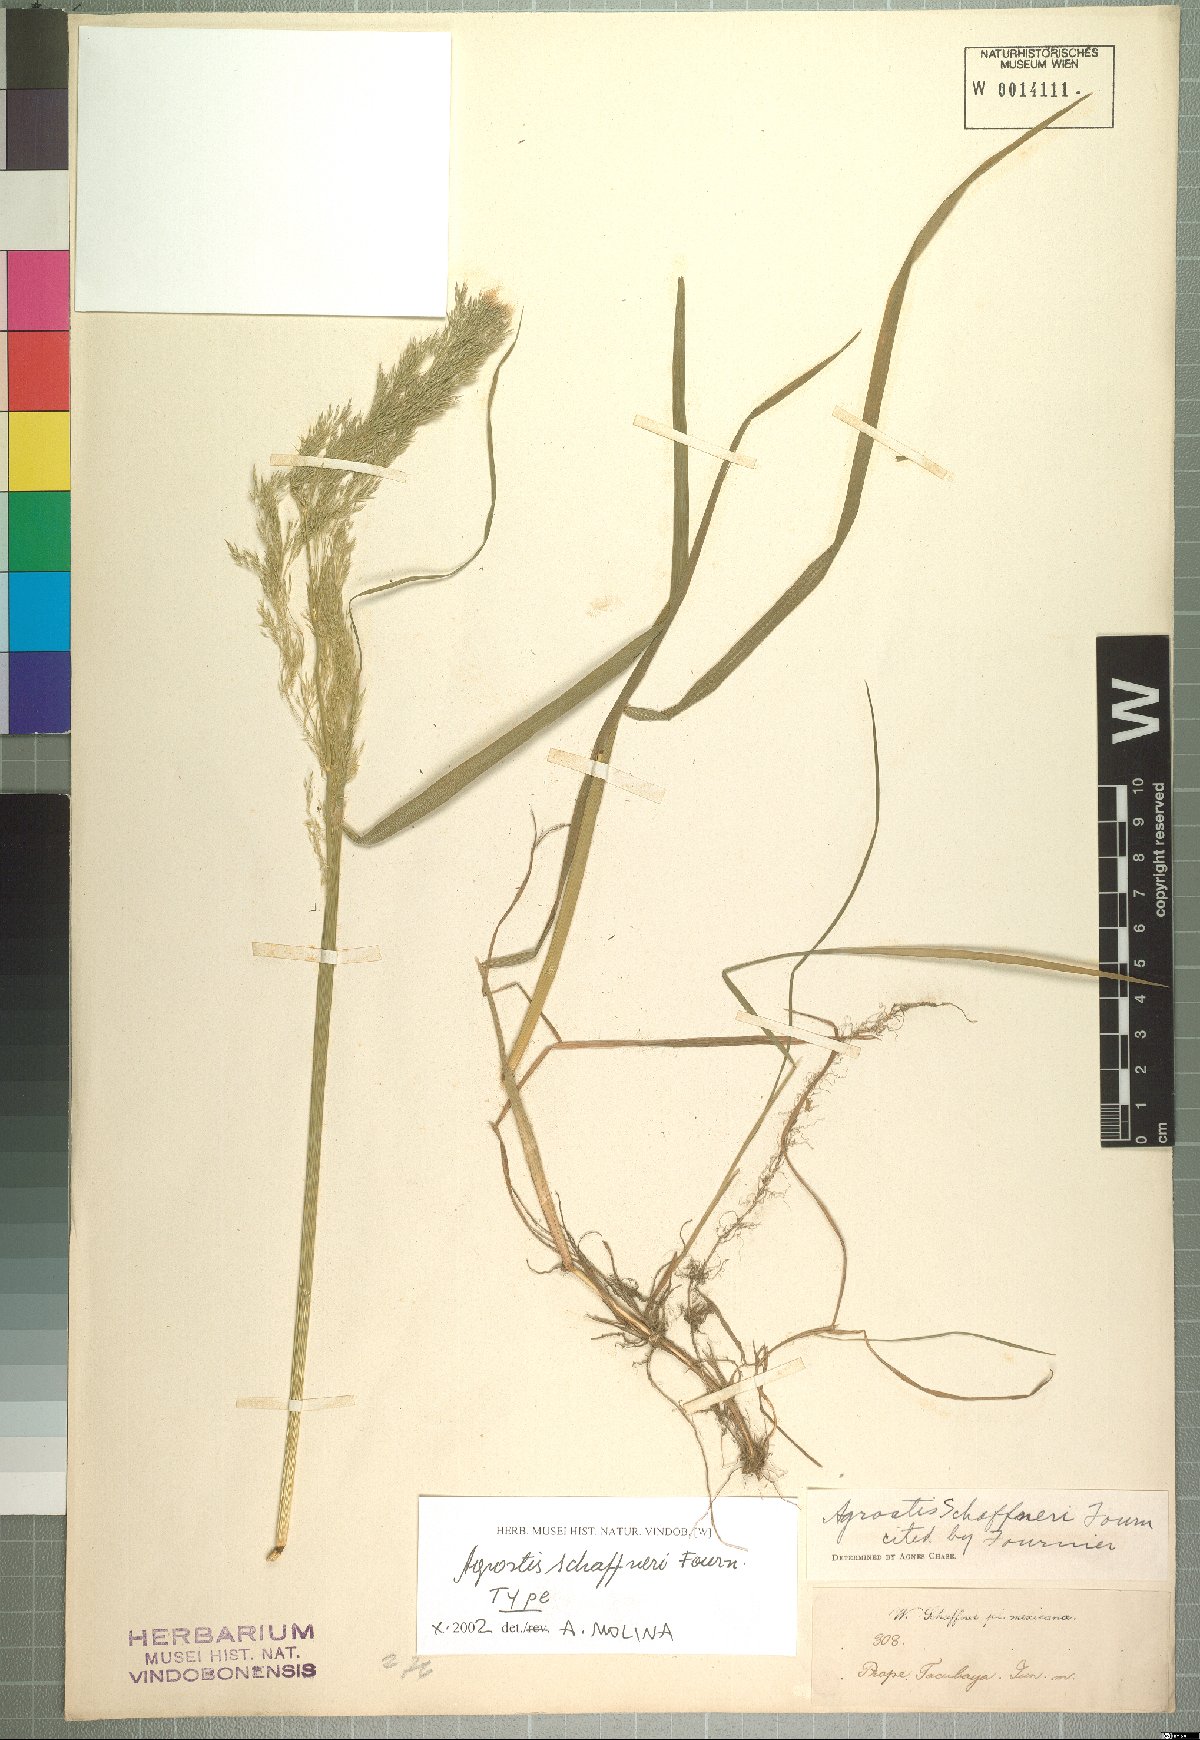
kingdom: Plantae
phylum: Tracheophyta
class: Liliopsida
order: Poales
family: Poaceae
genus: Agrostis
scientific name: Agrostis schaffneri
